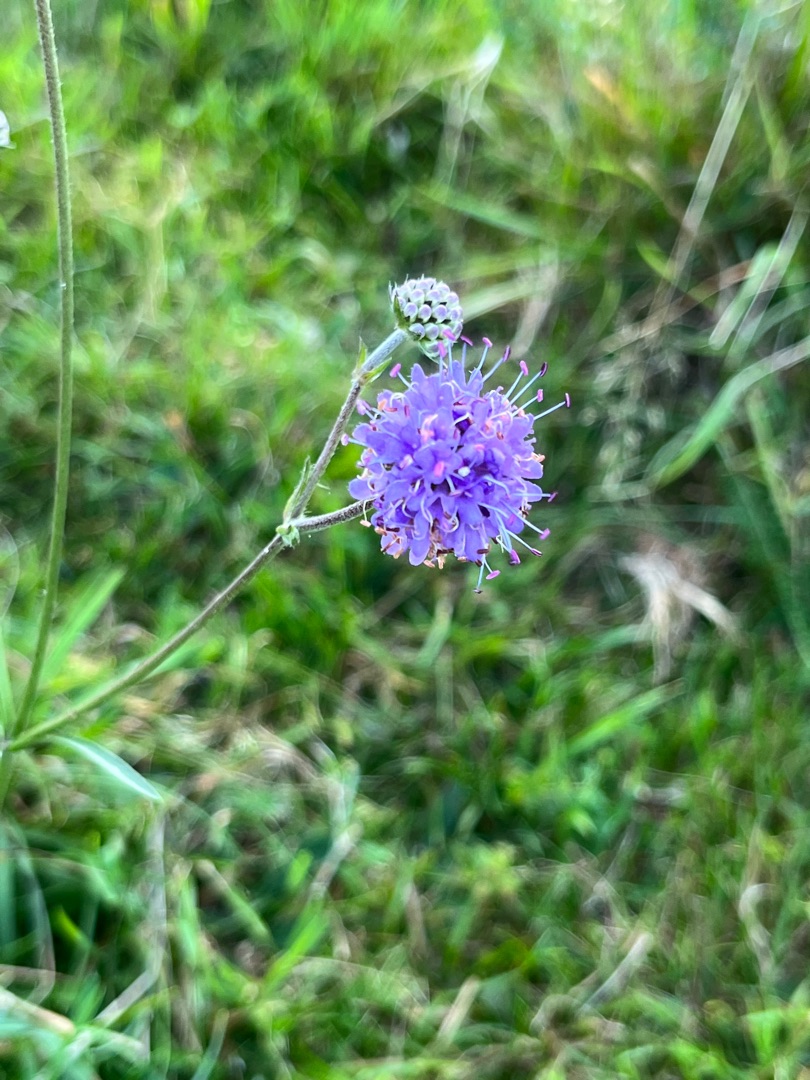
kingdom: Plantae
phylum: Tracheophyta
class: Magnoliopsida
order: Dipsacales
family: Caprifoliaceae
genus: Succisa
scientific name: Succisa pratensis
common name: Djævelsbid
